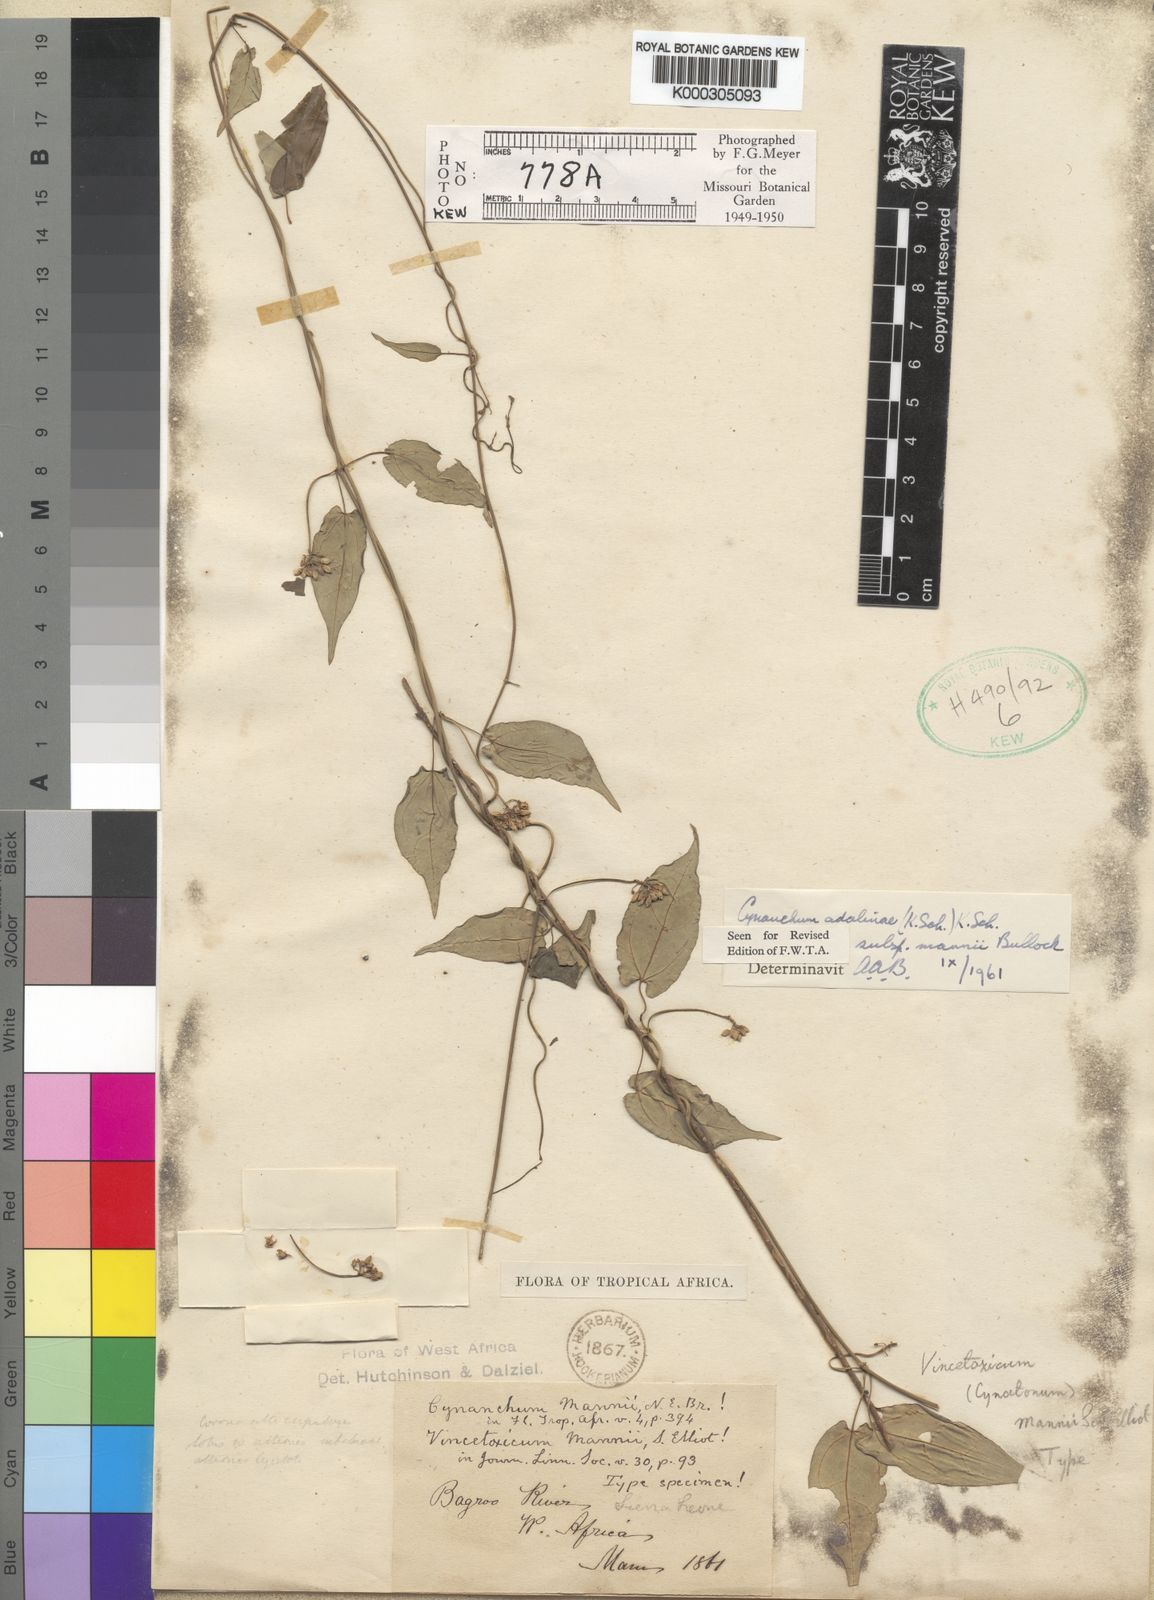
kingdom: Plantae
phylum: Tracheophyta
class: Magnoliopsida
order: Gentianales
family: Apocynaceae
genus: Cynanchum
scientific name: Cynanchum adalinae
